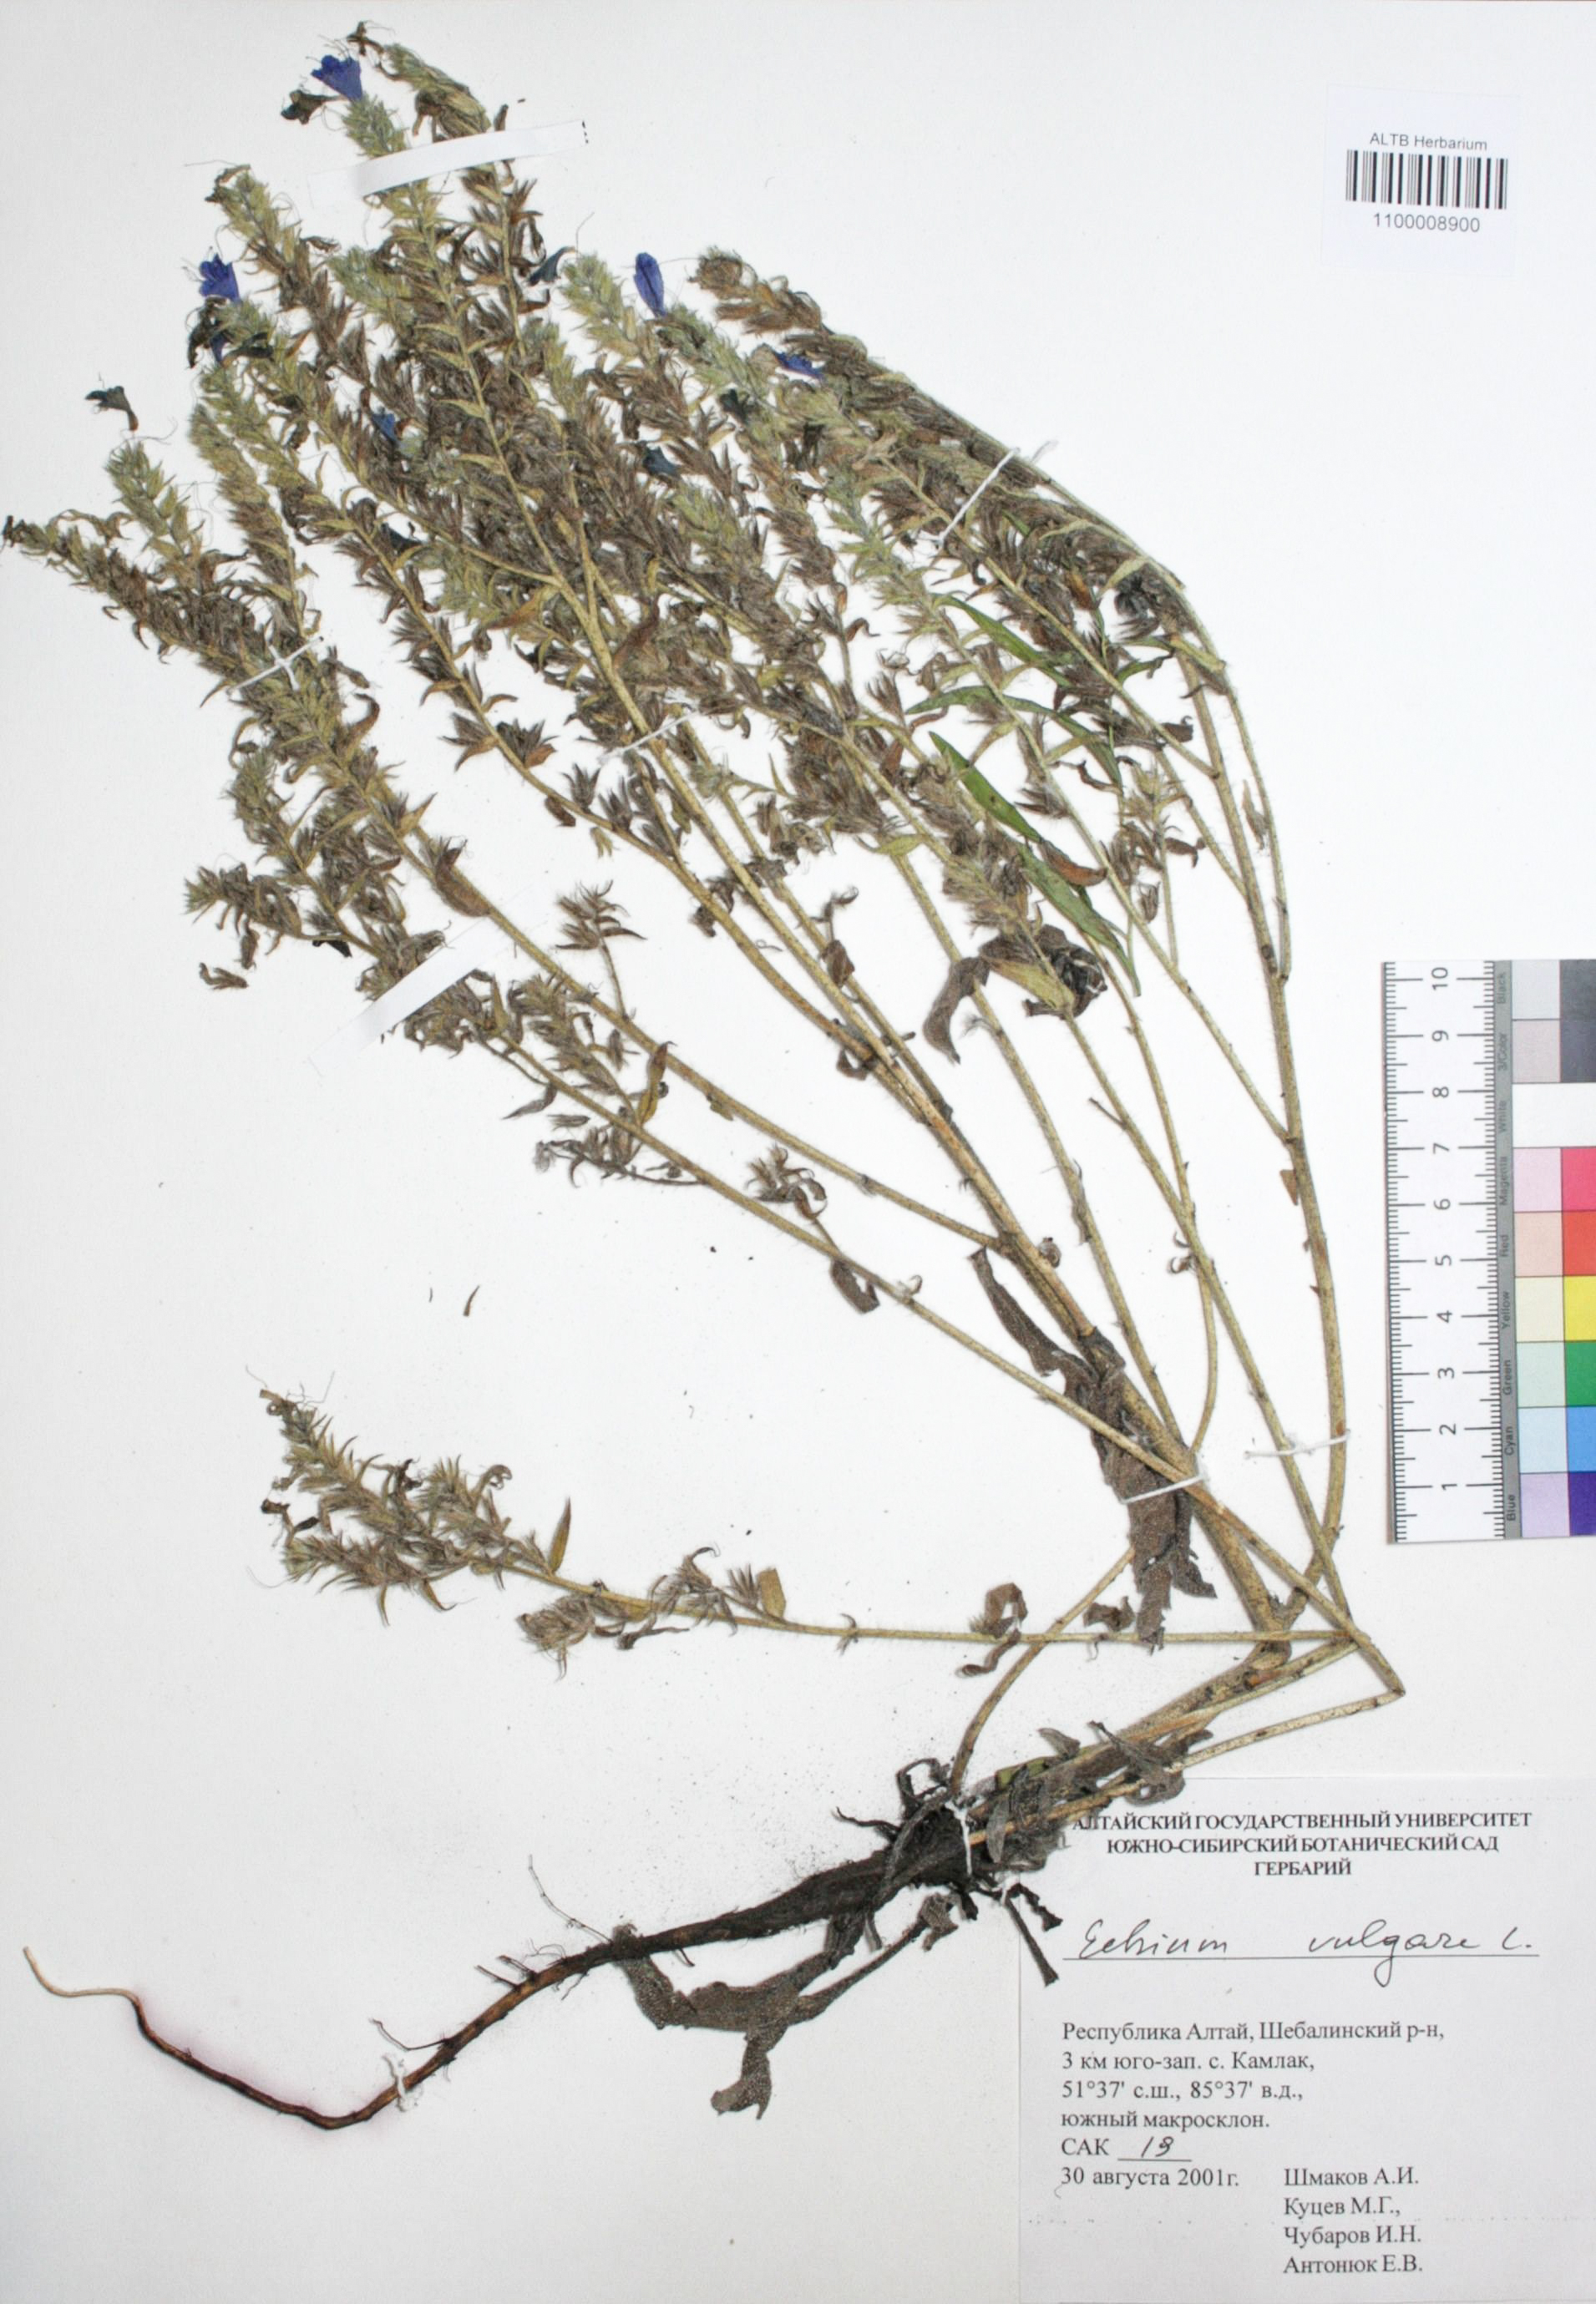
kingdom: Plantae
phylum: Tracheophyta
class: Magnoliopsida
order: Boraginales
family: Boraginaceae
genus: Echium
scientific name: Echium vulgare
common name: Common viper's bugloss
